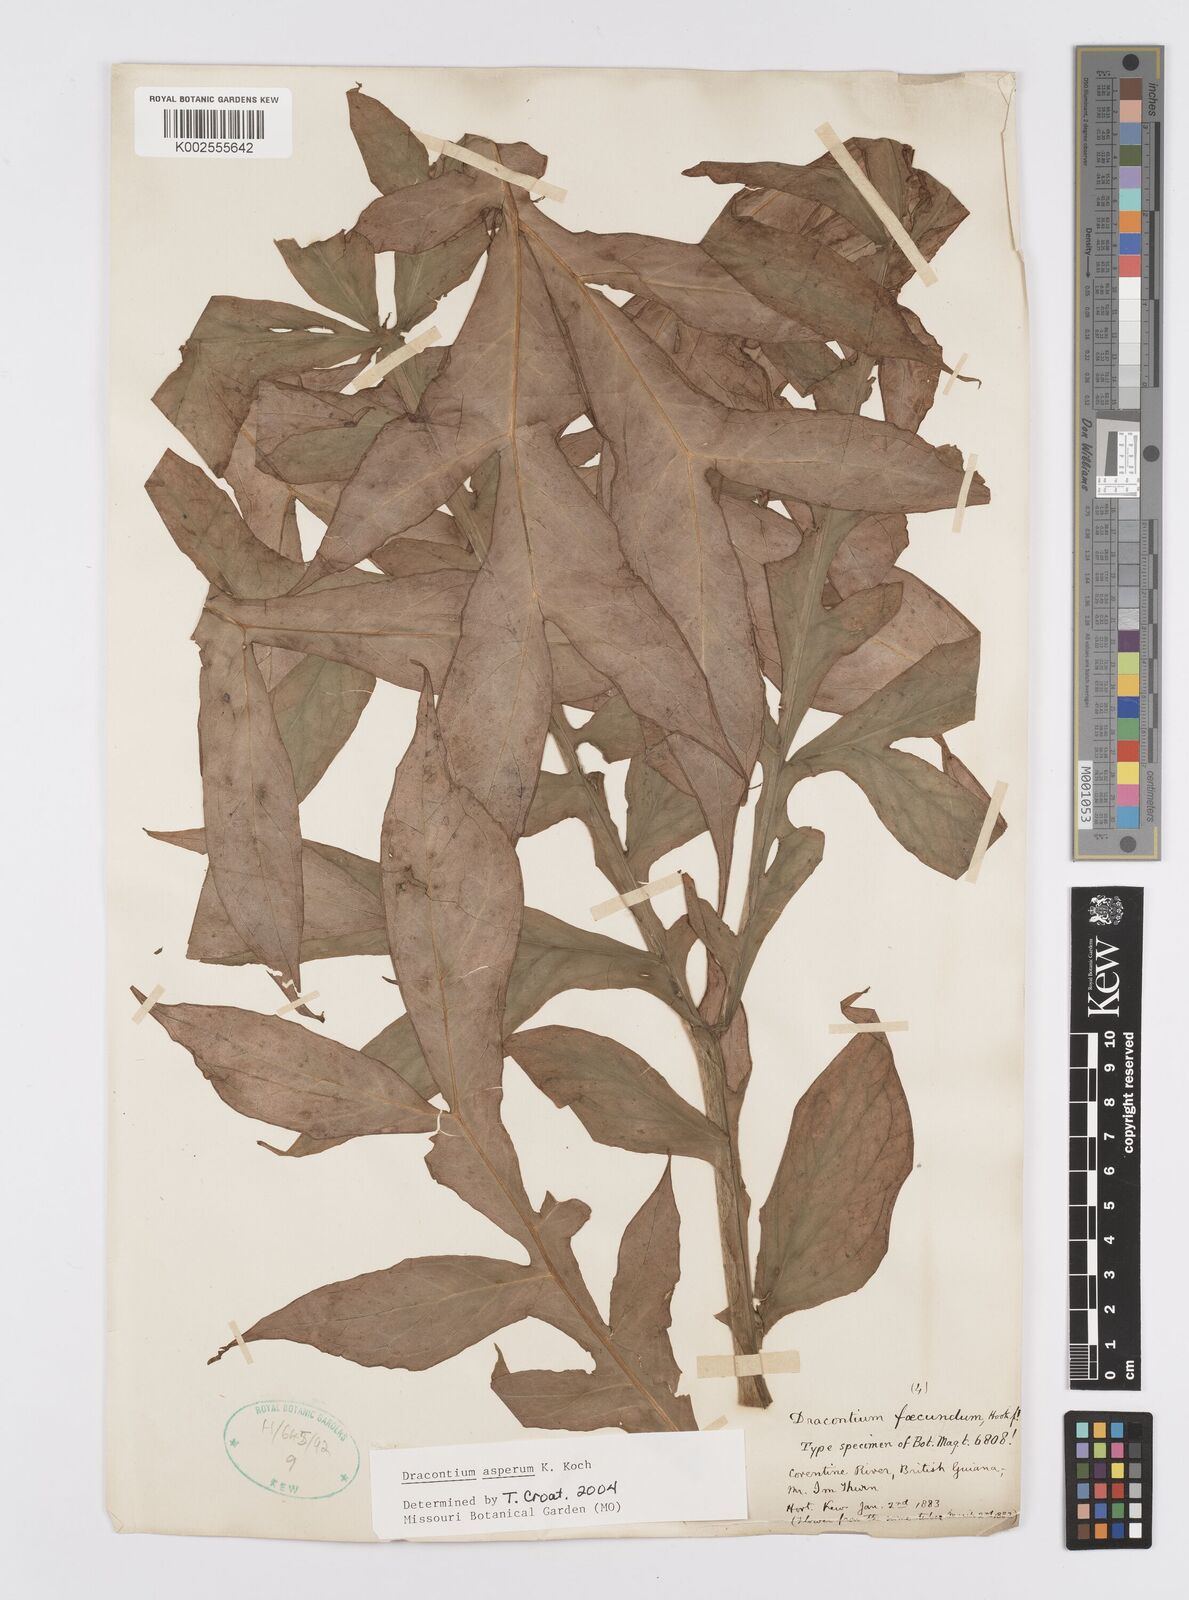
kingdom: Plantae
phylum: Tracheophyta
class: Liliopsida
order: Alismatales
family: Araceae
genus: Dracontium
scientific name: Dracontium asperum
